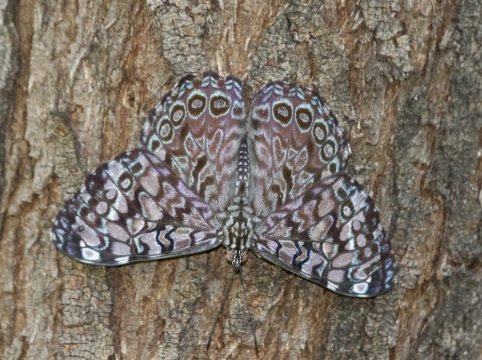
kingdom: Animalia
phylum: Arthropoda
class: Insecta
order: Lepidoptera
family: Nymphalidae
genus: Hamadryas
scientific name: Hamadryas guatemalena
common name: Guatemalan Cracker
